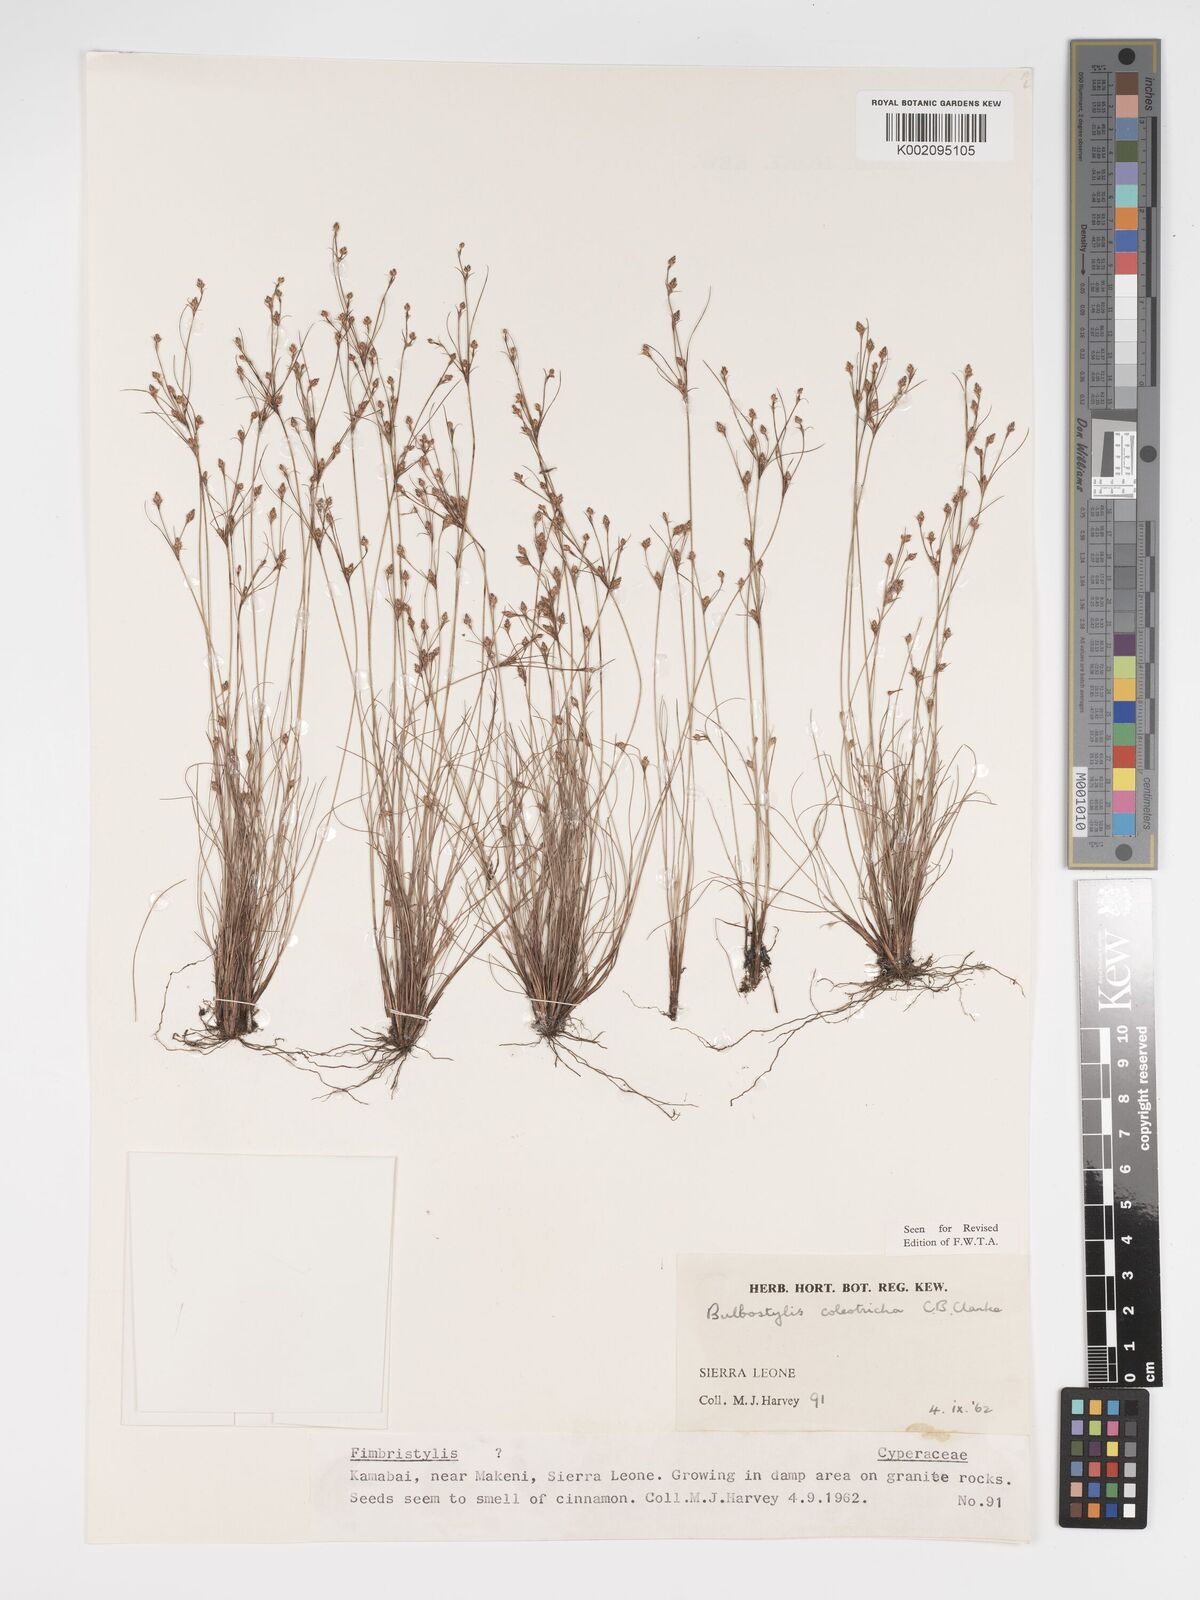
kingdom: Plantae
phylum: Tracheophyta
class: Liliopsida
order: Poales
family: Cyperaceae
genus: Bulbostylis
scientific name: Bulbostylis coleotricha
